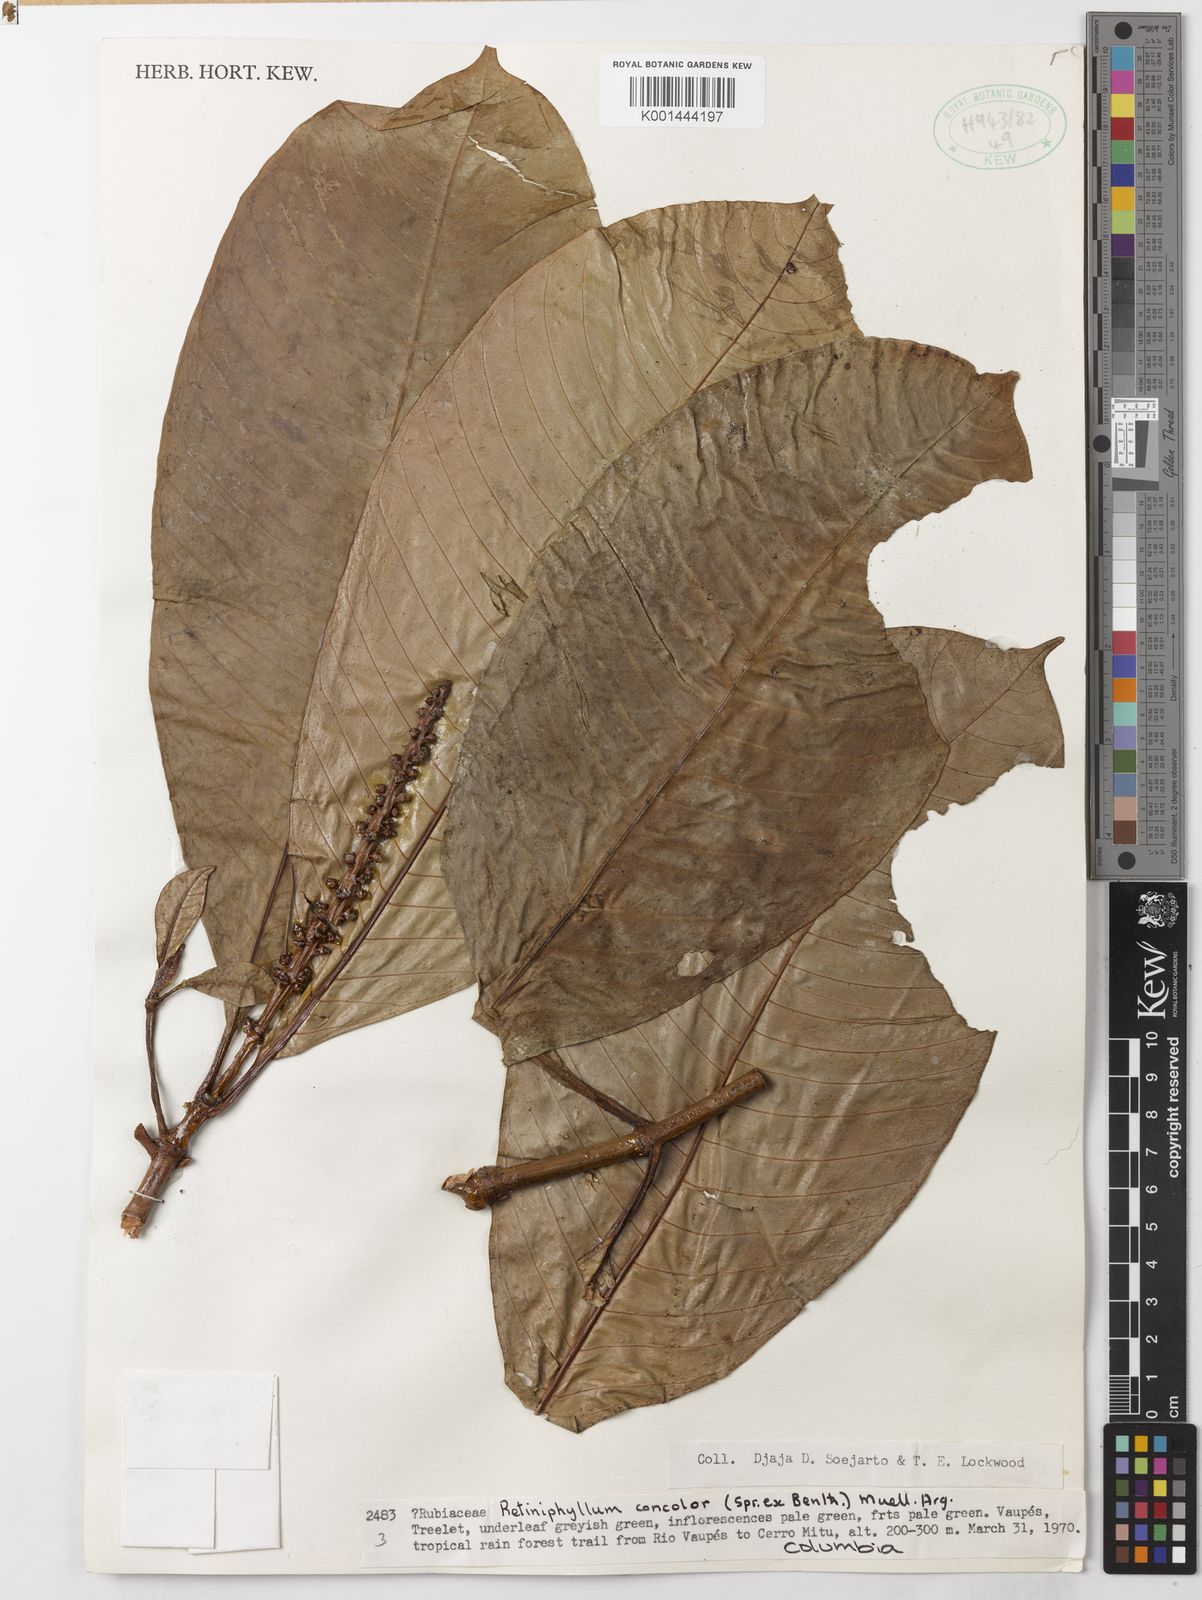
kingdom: Plantae
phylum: Tracheophyta
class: Magnoliopsida
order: Gentianales
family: Rubiaceae
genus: Retiniphyllum
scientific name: Retiniphyllum
